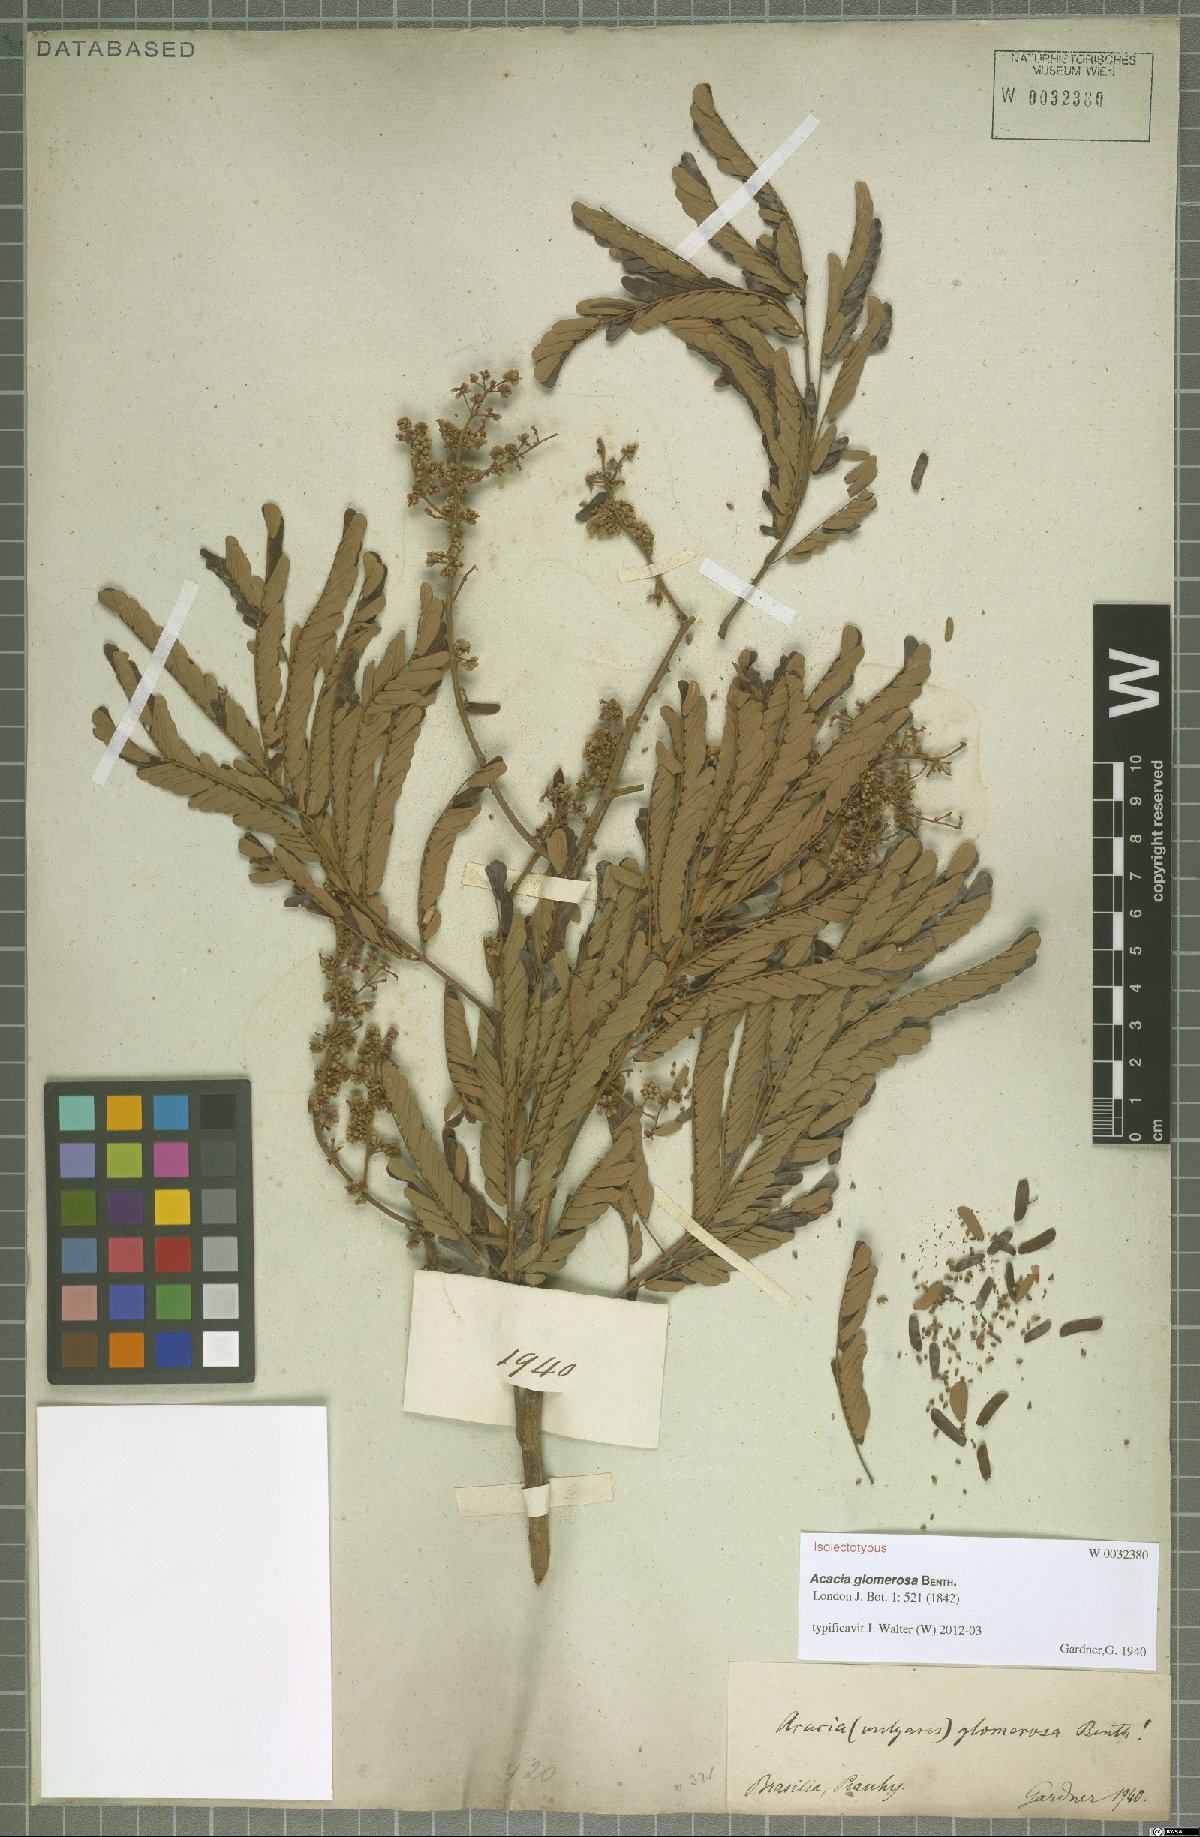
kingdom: Plantae
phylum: Tracheophyta
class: Magnoliopsida
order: Fabales
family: Fabaceae
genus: Senegalia
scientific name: Senegalia polyphylla
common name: White-tamarind
